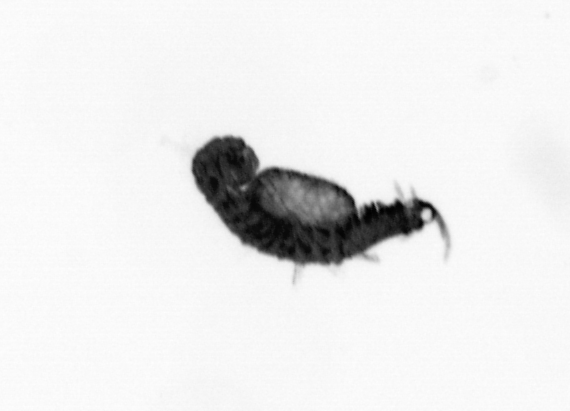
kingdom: Animalia
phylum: Annelida
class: Polychaeta
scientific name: Polychaeta
